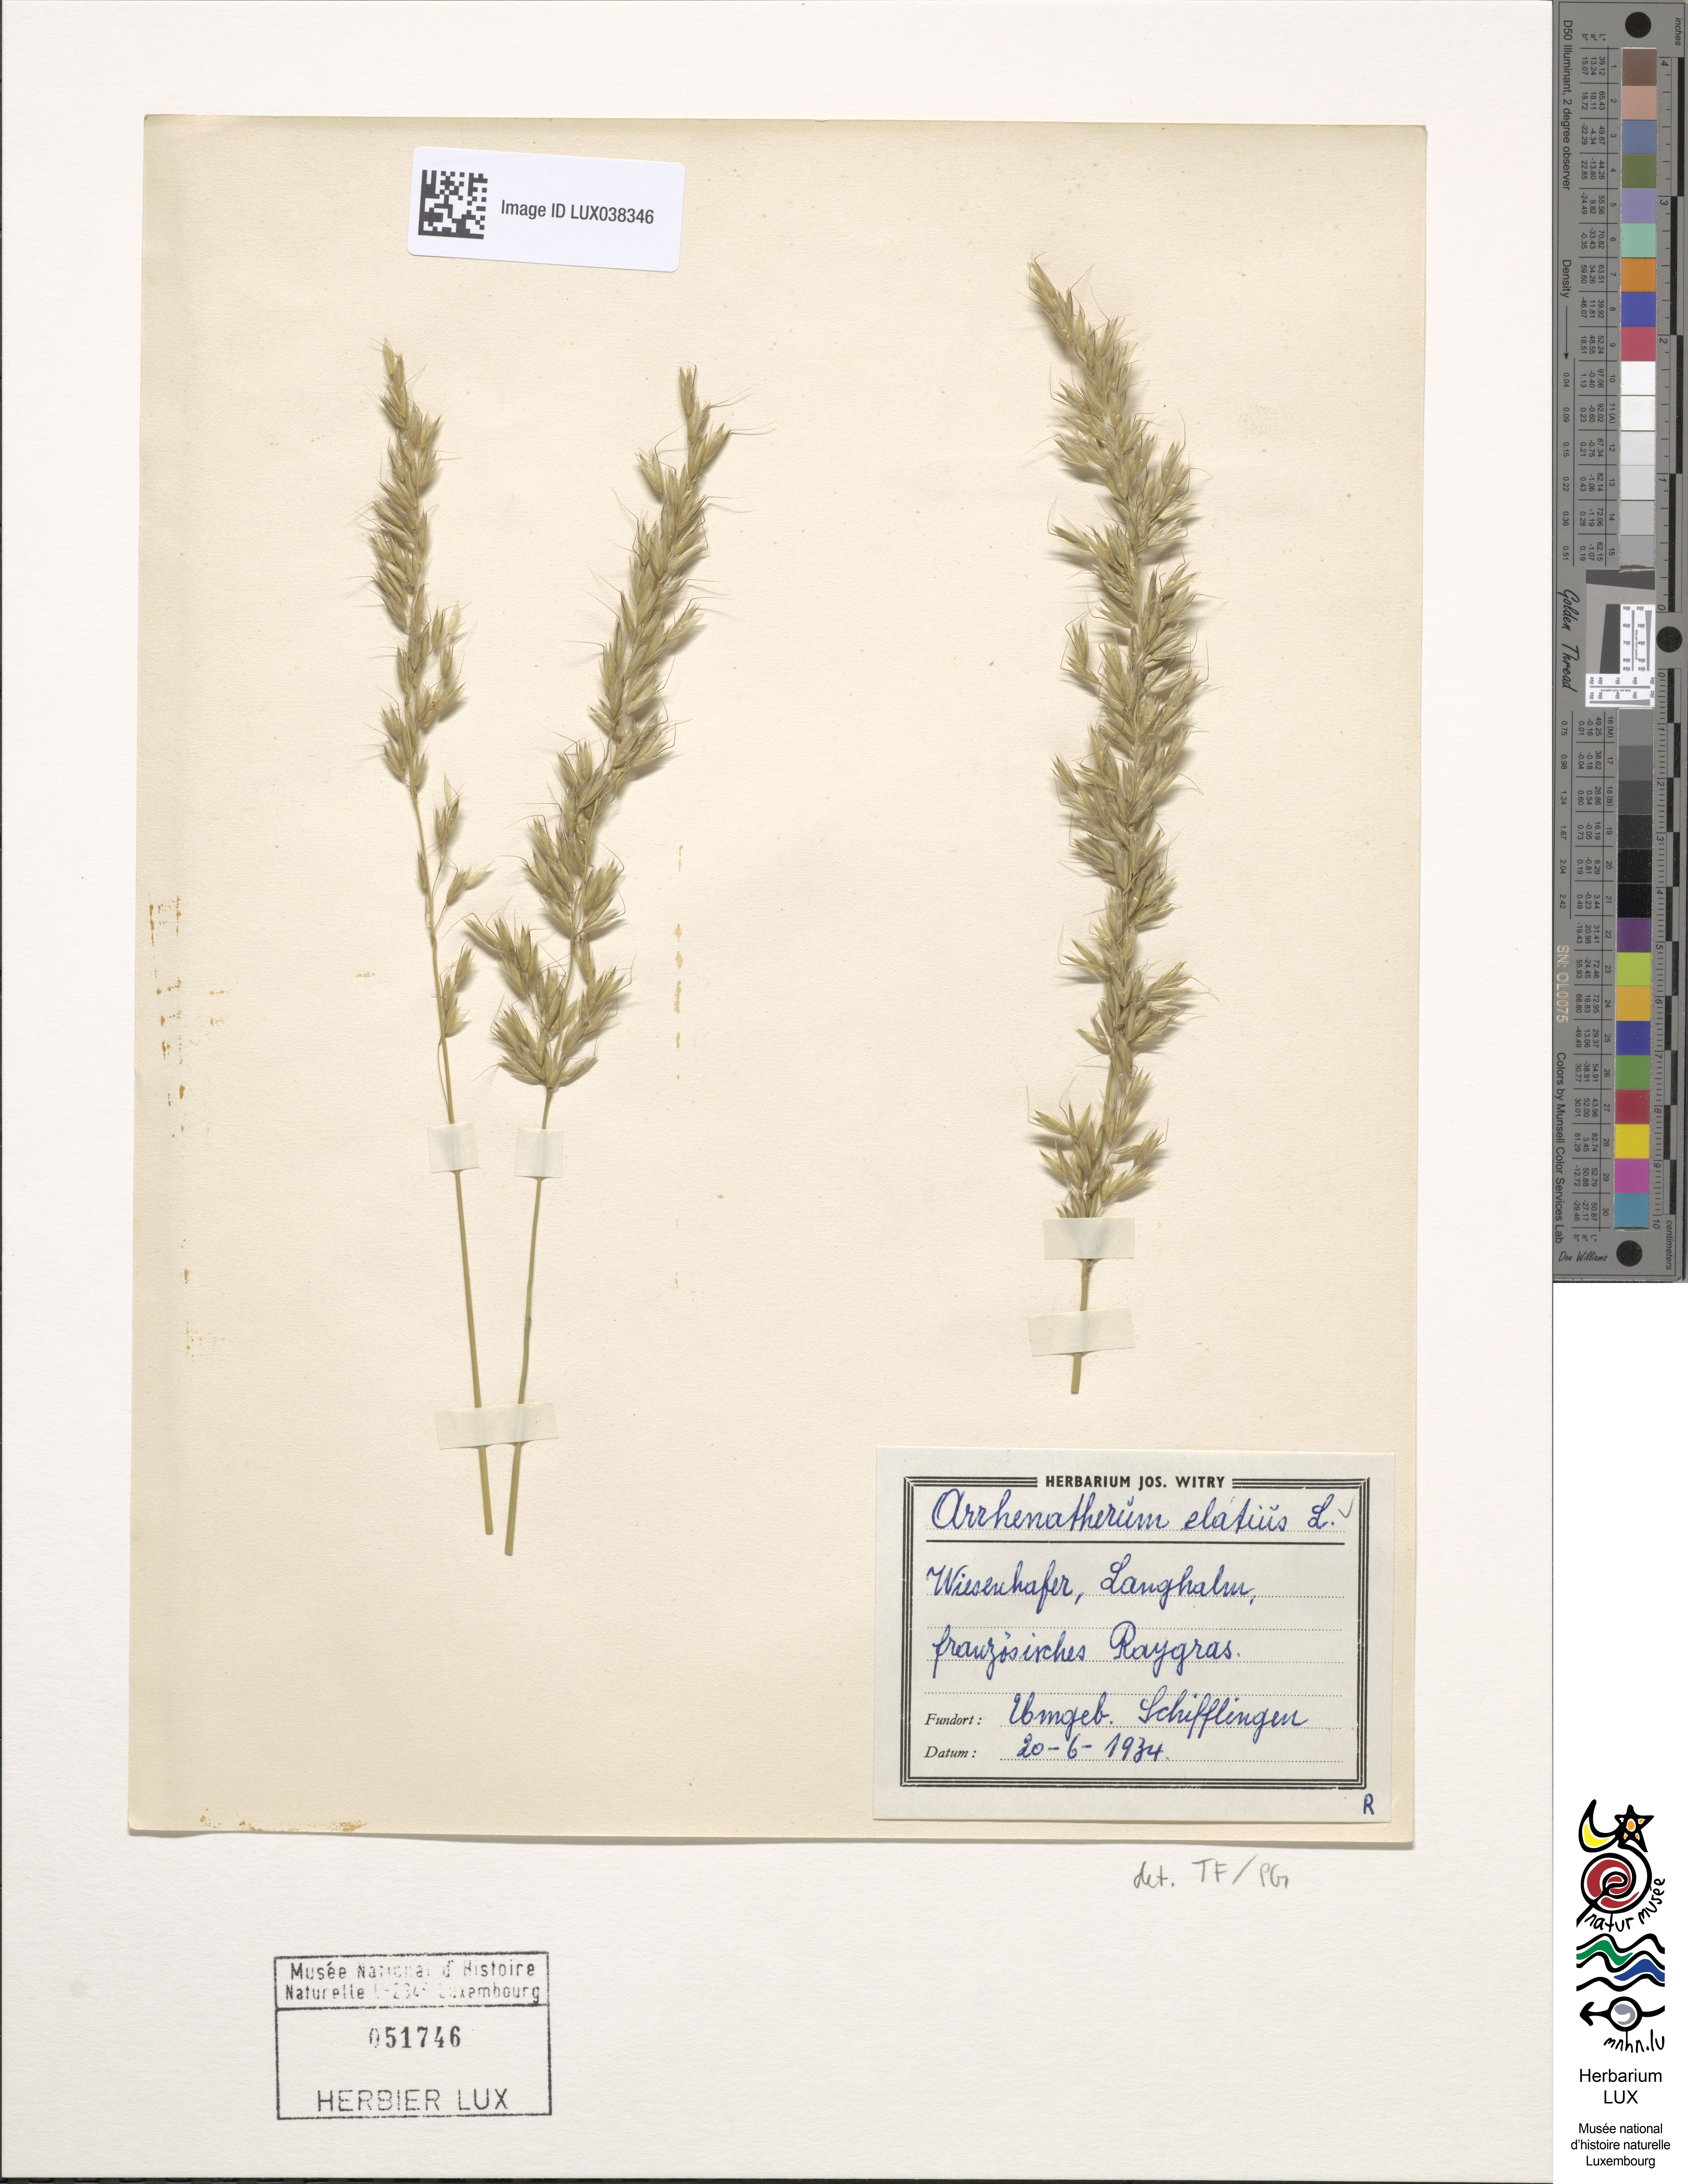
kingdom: Plantae
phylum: Tracheophyta
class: Liliopsida
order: Poales
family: Poaceae
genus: Arrhenatherum
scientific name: Arrhenatherum elatius
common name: Tall oatgrass
